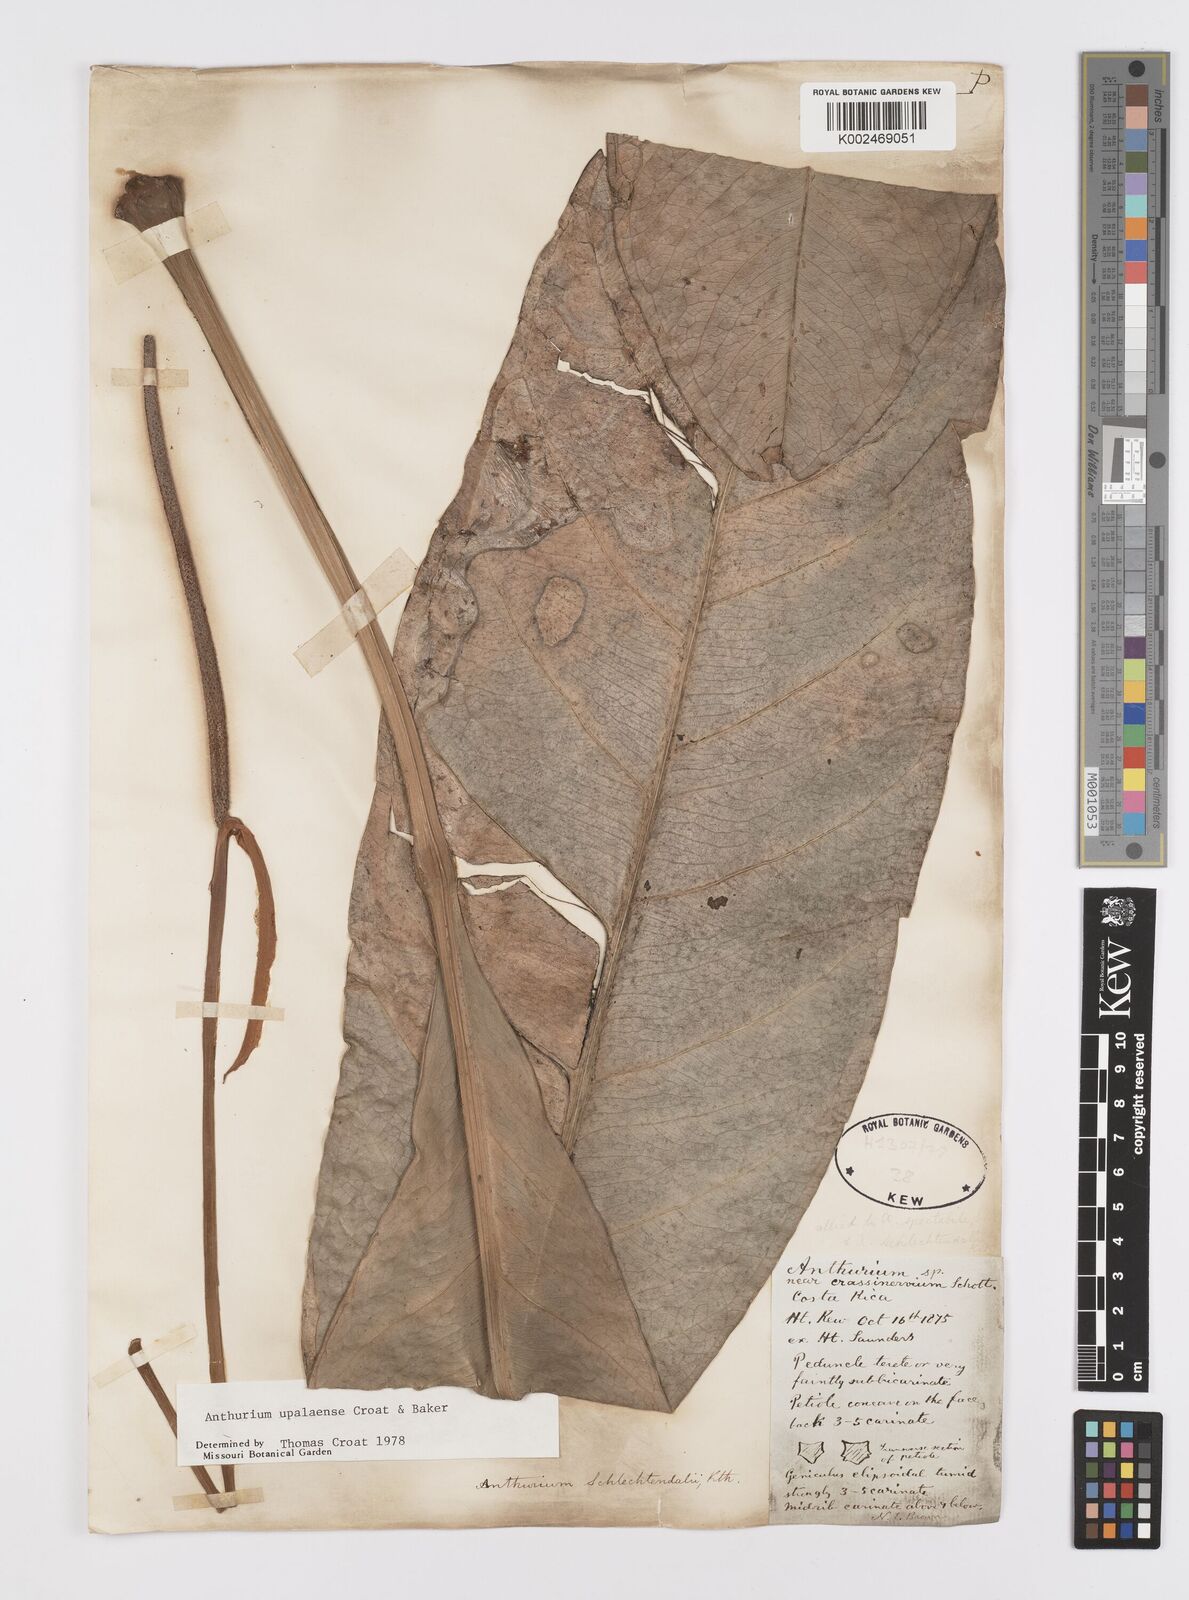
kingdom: Plantae
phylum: Tracheophyta
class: Liliopsida
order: Alismatales
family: Araceae
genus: Anthurium
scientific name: Anthurium upalaense
